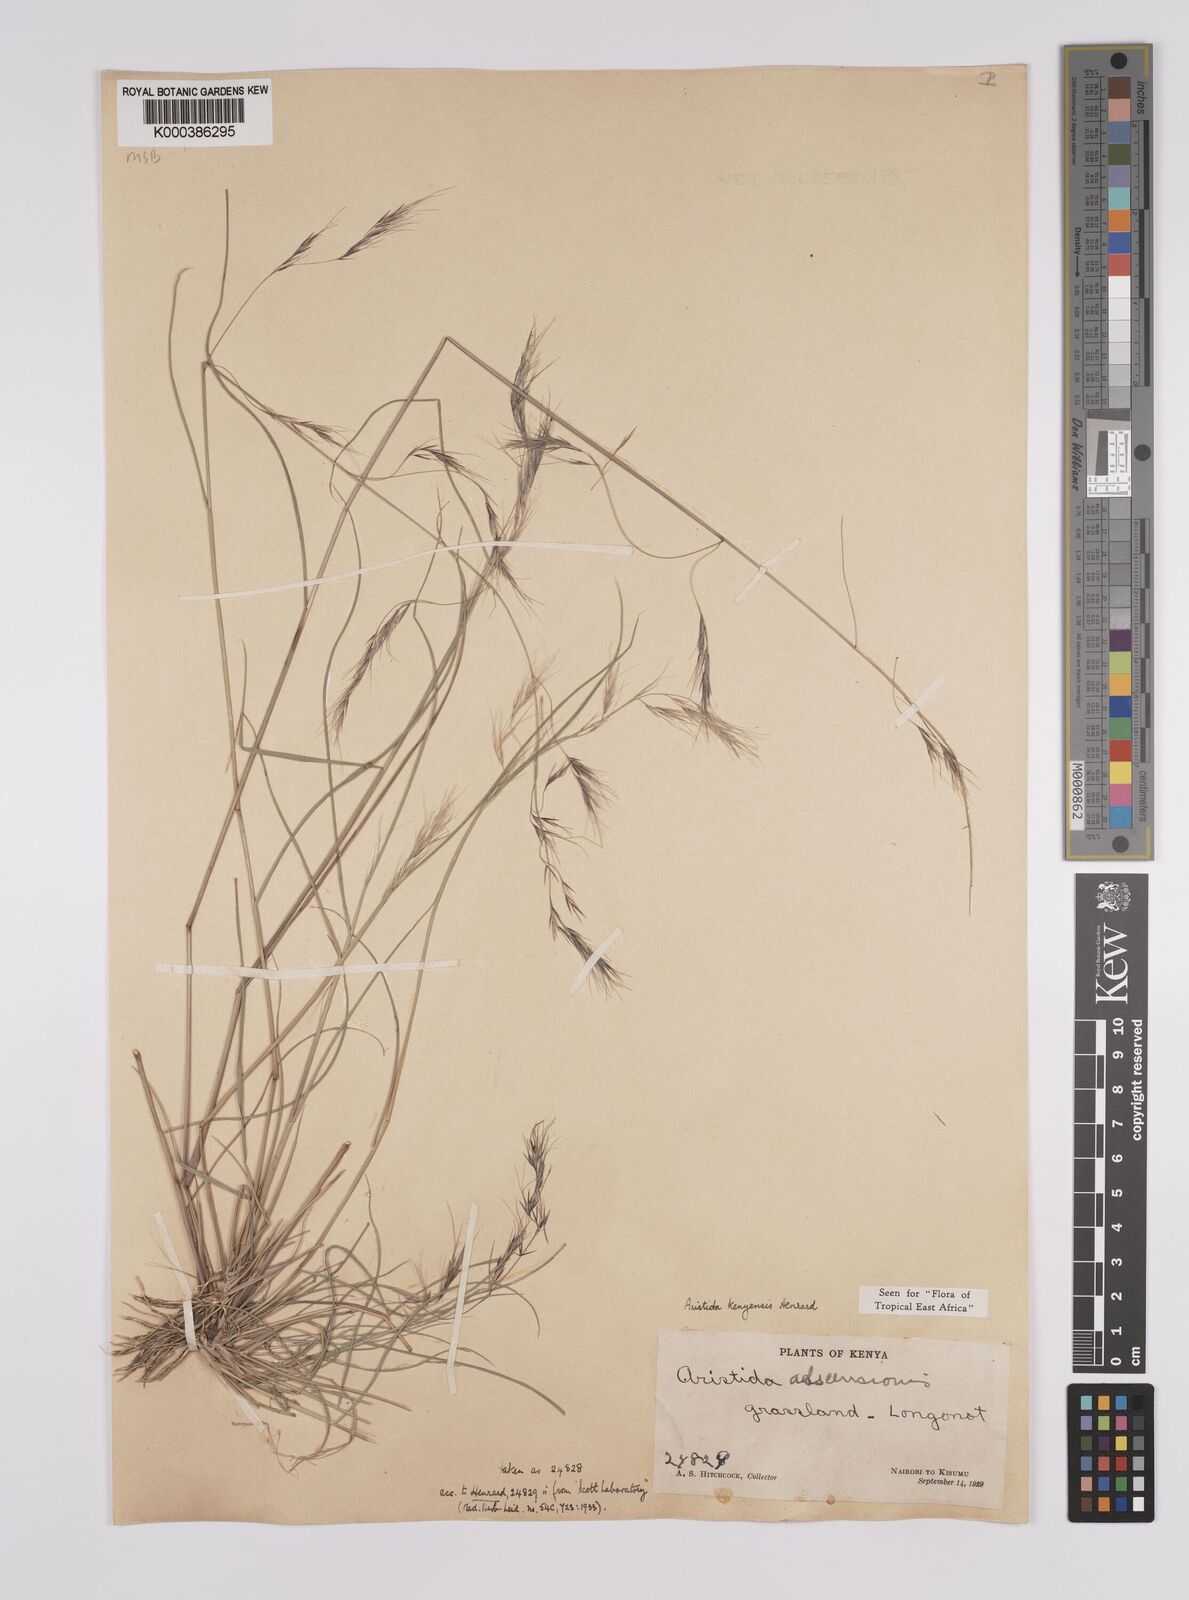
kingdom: Plantae
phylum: Tracheophyta
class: Liliopsida
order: Poales
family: Poaceae
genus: Aristida
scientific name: Aristida kenyensis
